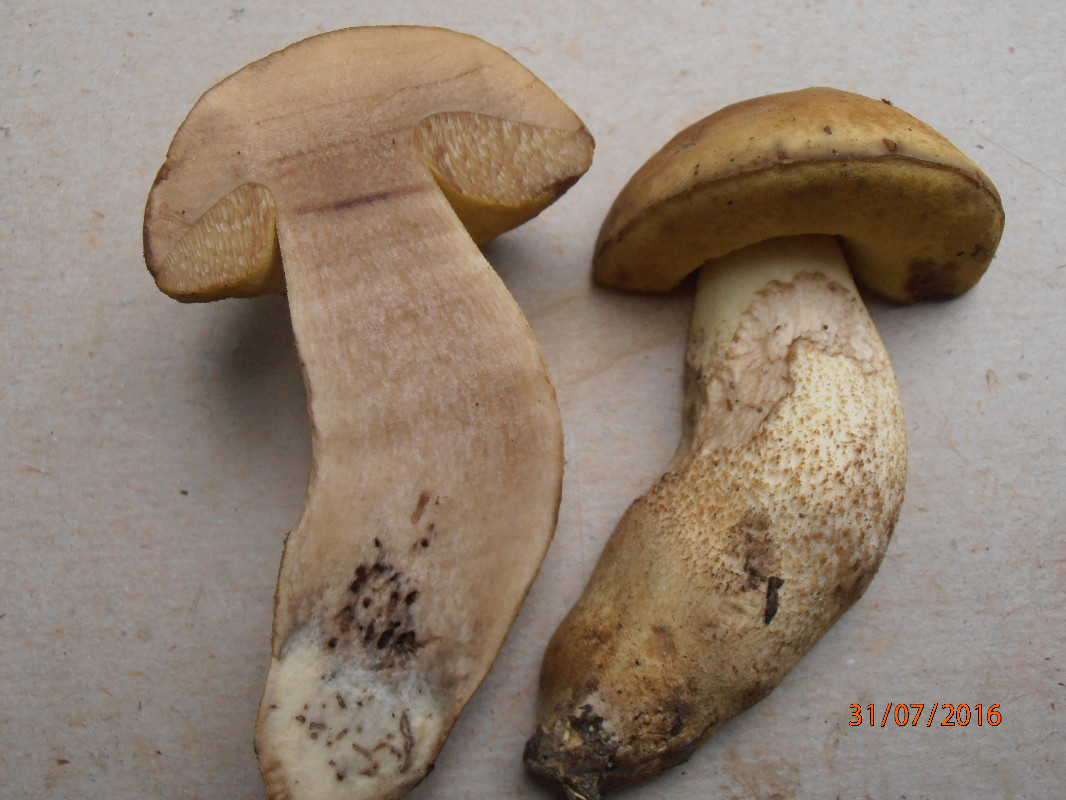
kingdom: Fungi
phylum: Basidiomycota
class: Agaricomycetes
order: Boletales
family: Boletaceae
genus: Leccinellum
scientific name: Leccinellum crocipodium
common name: gul skælrørhat
